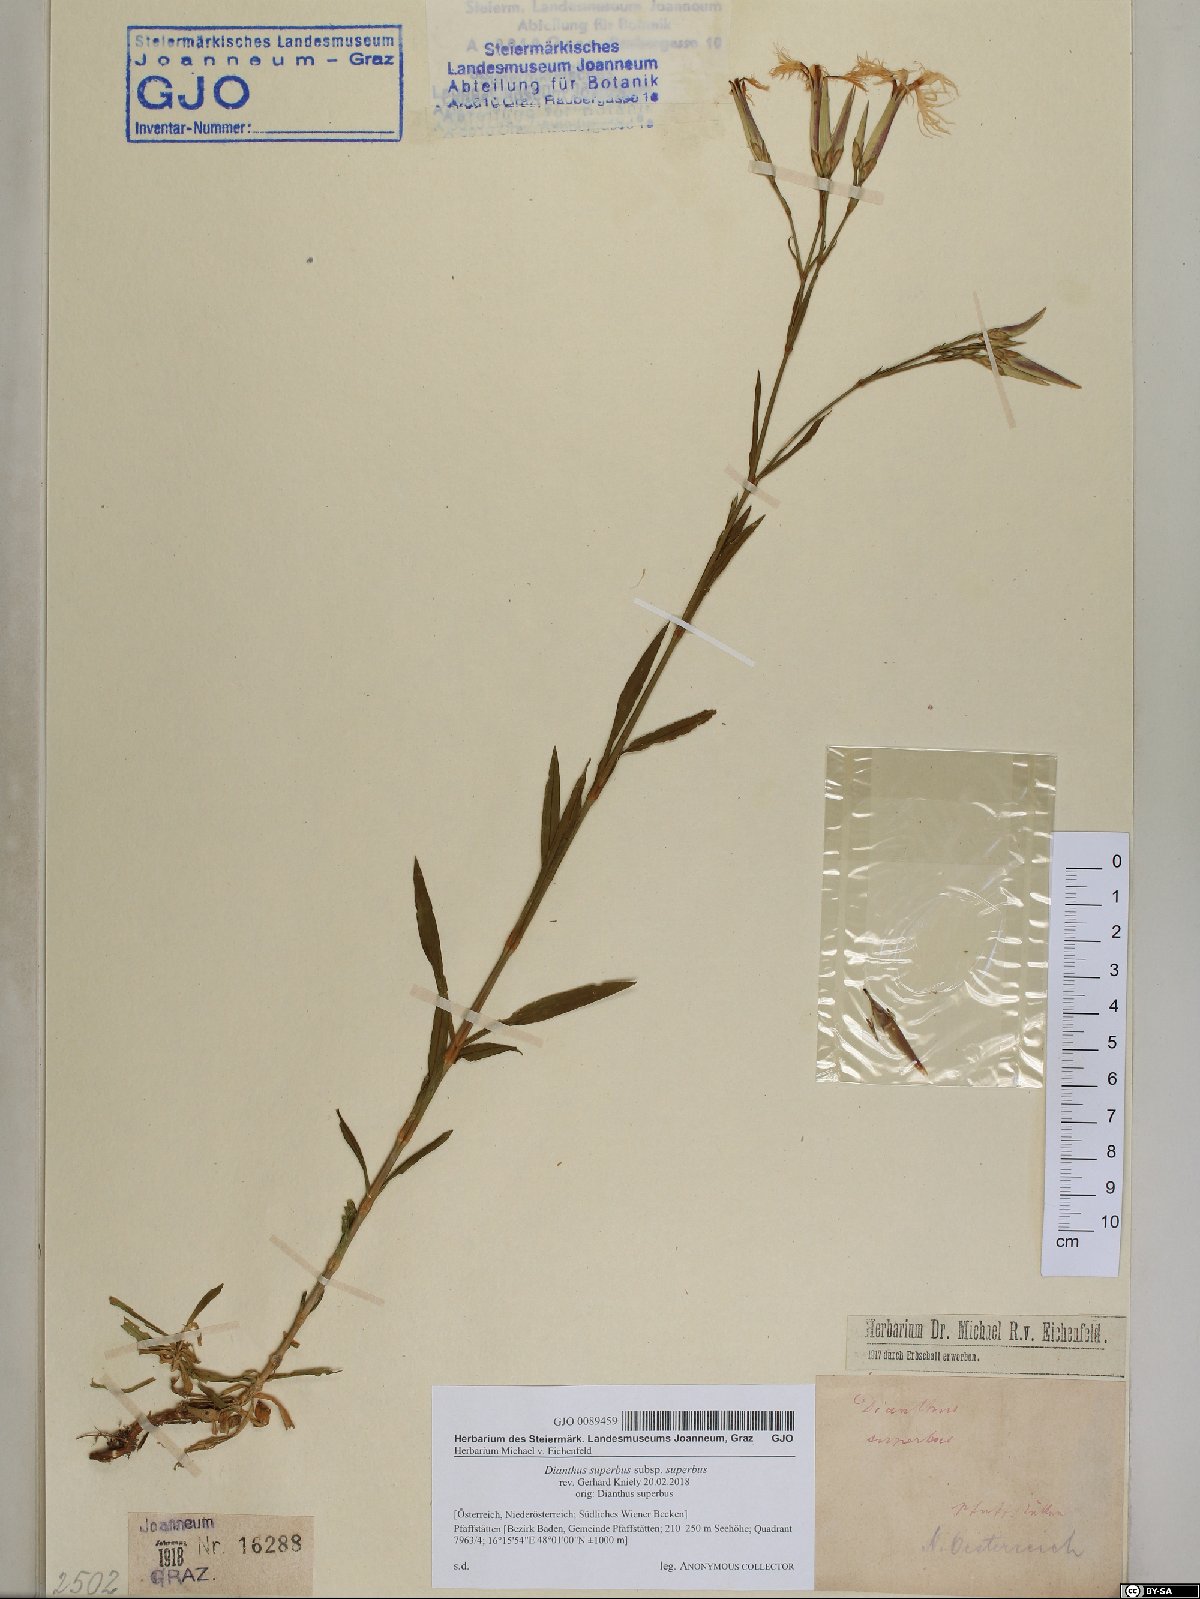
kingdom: Plantae
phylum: Tracheophyta
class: Magnoliopsida
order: Caryophyllales
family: Caryophyllaceae
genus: Dianthus
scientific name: Dianthus superbus
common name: Fringed pink
